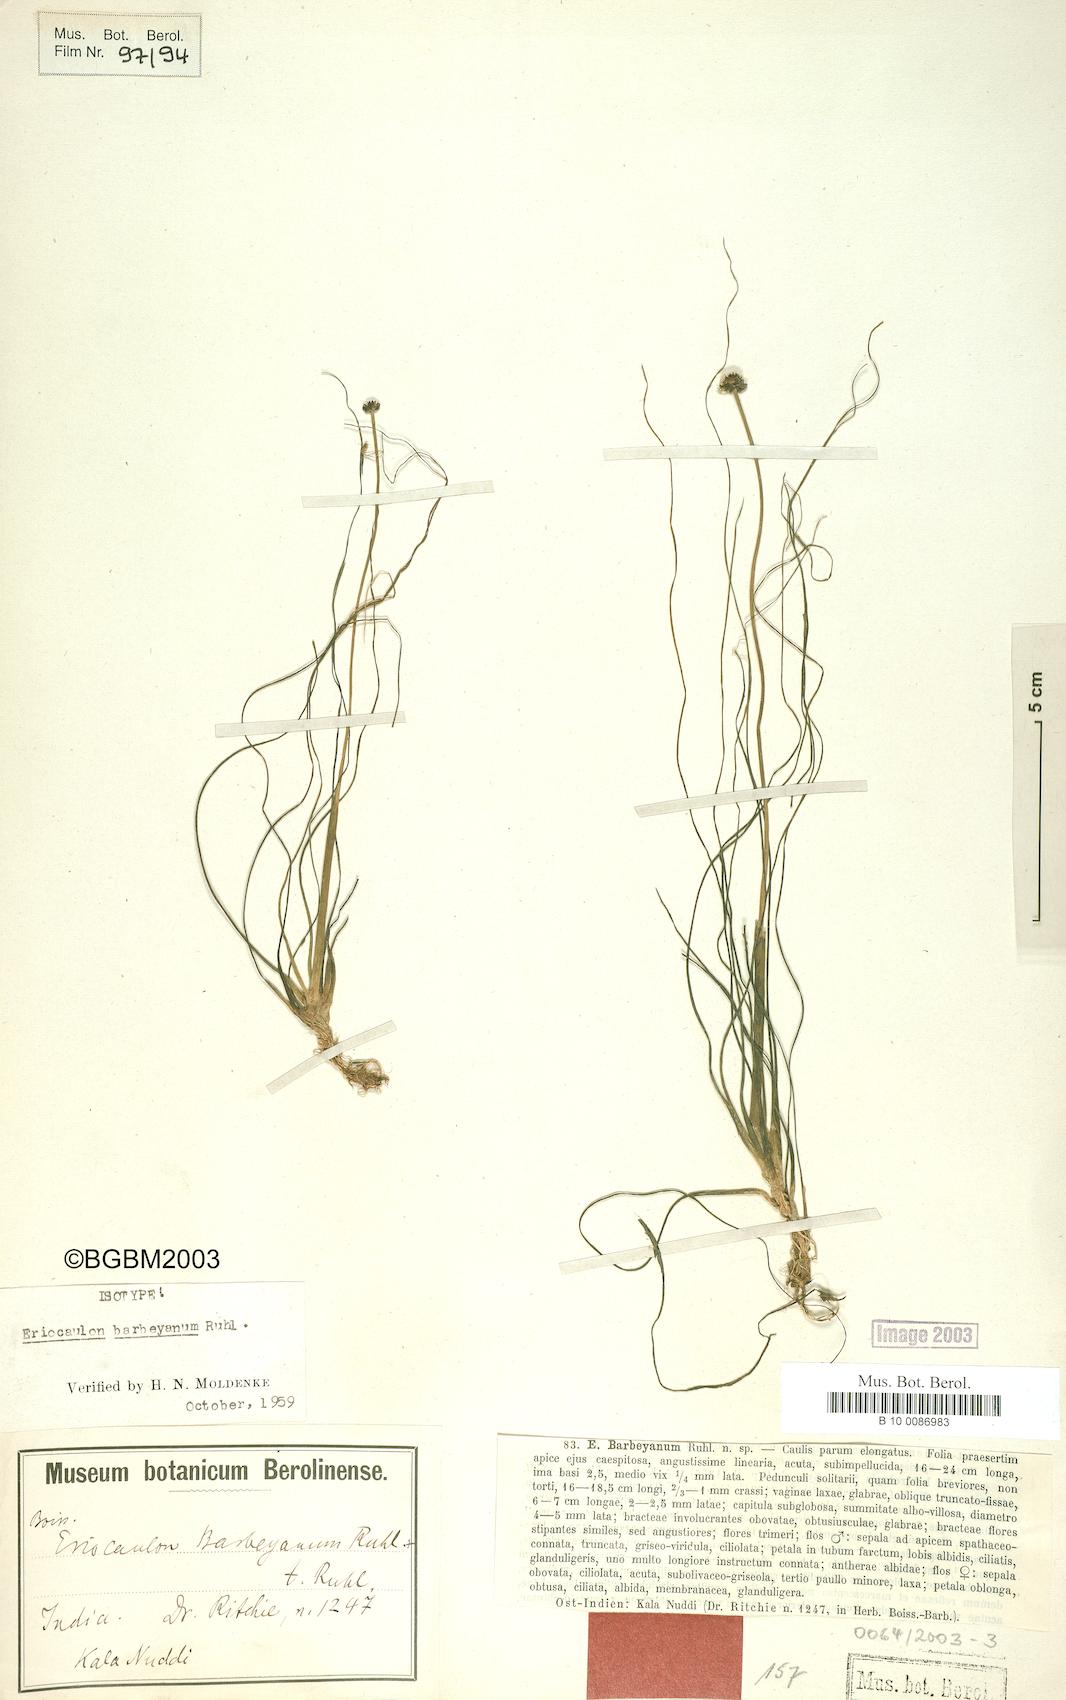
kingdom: Plantae
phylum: Tracheophyta
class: Liliopsida
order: Poales
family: Eriocaulaceae
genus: Eriocaulon
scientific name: Eriocaulon fluviatile
